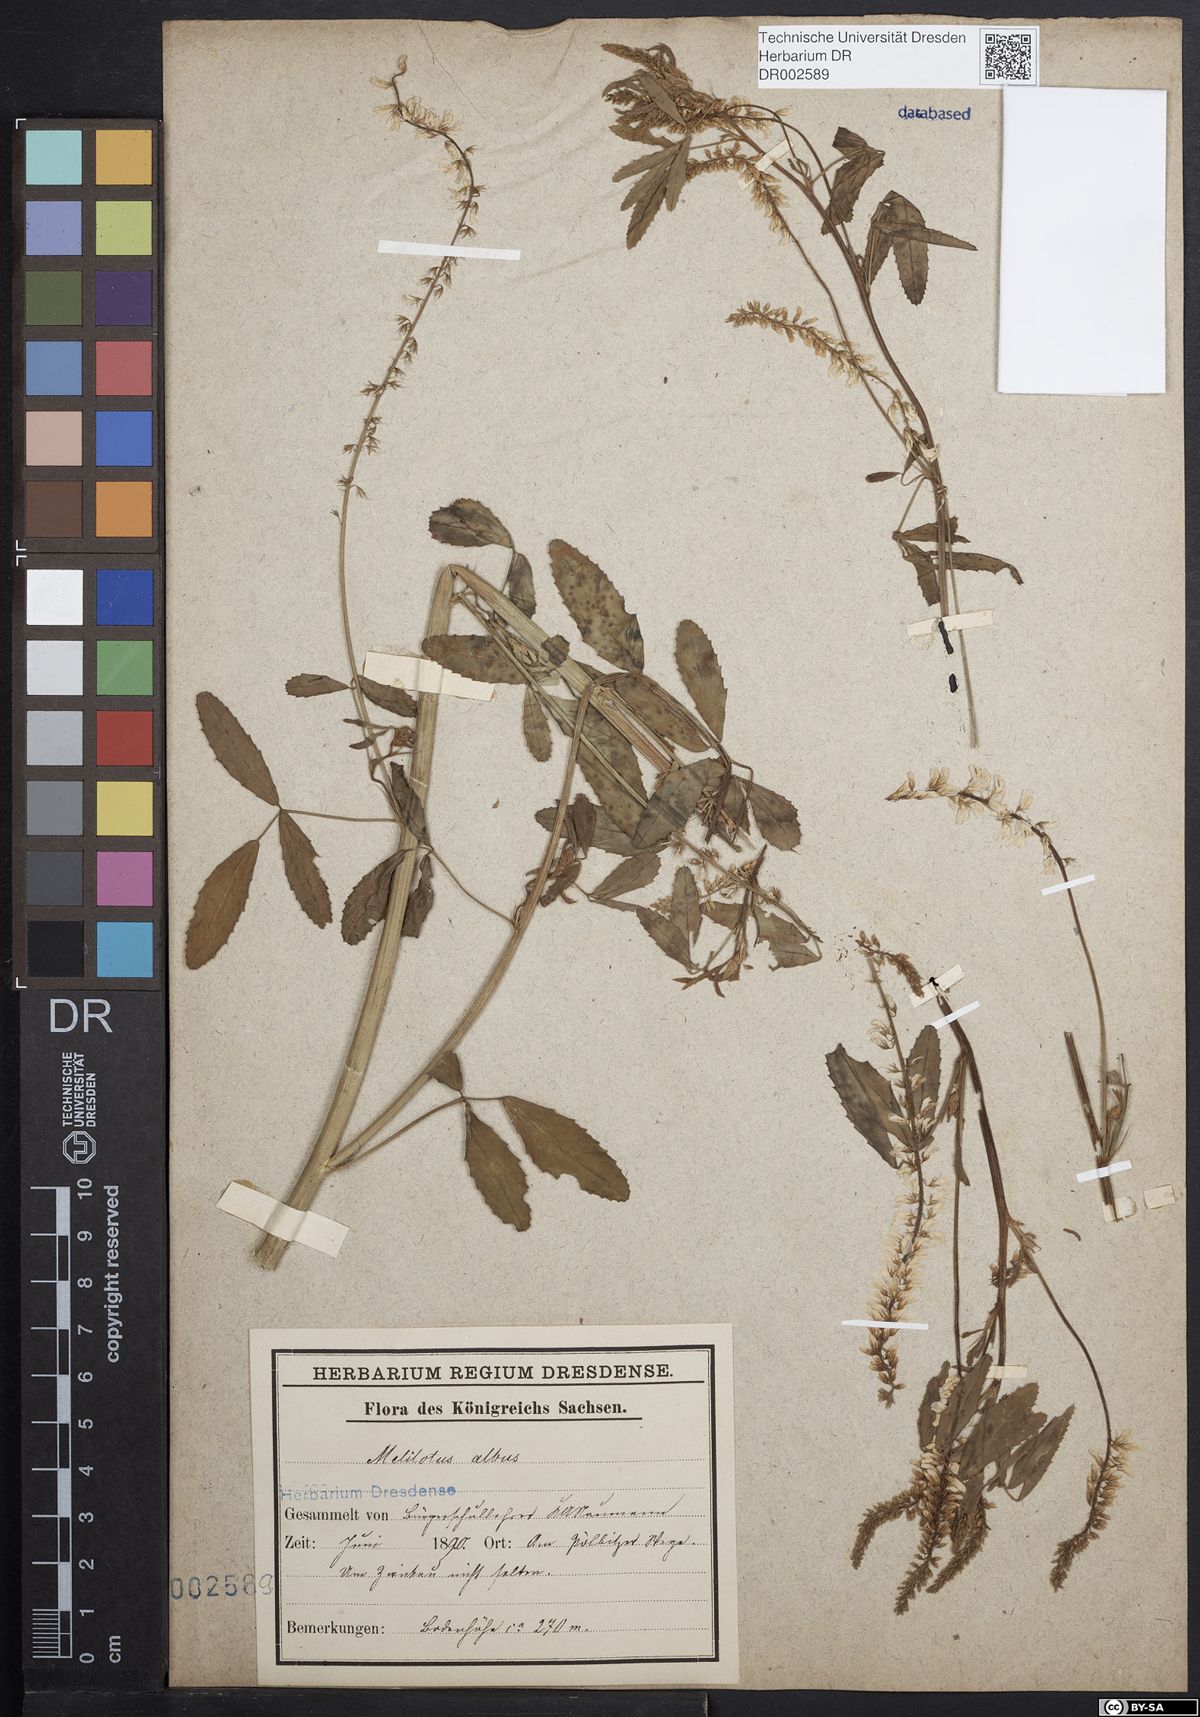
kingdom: Plantae
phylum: Tracheophyta
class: Magnoliopsida
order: Fabales
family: Fabaceae
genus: Melilotus
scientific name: Melilotus albus
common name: White melilot
